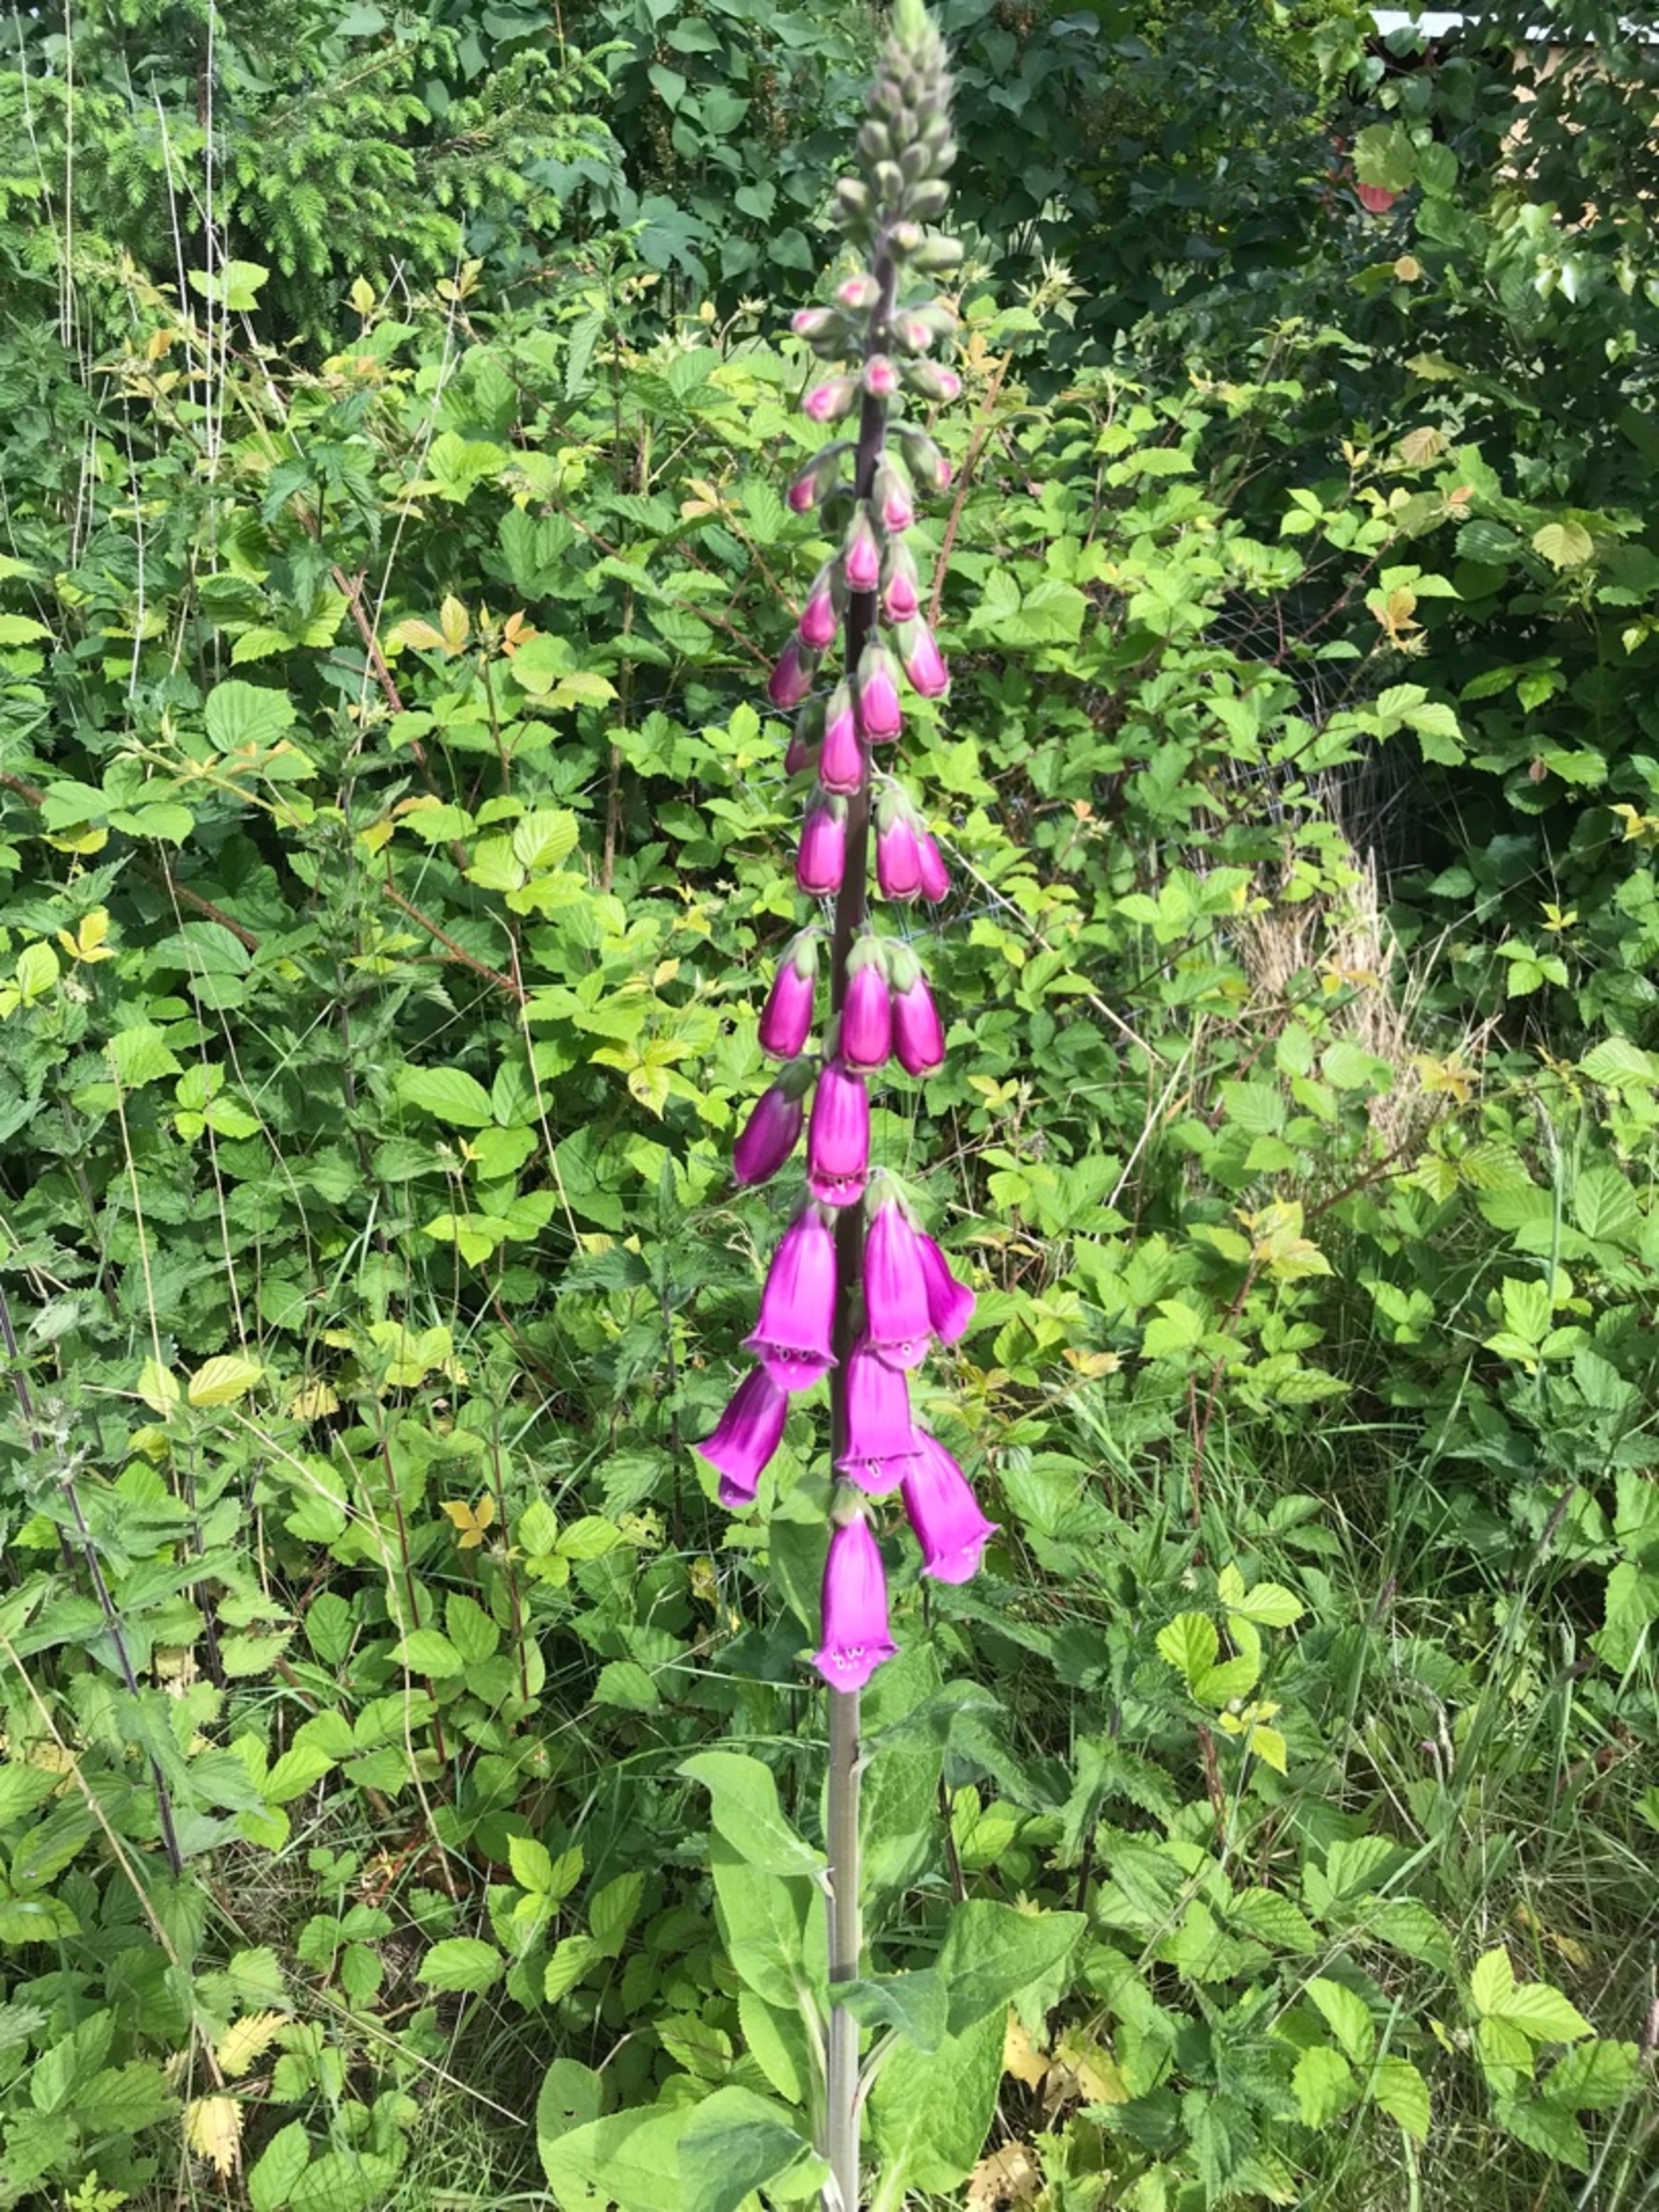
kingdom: Plantae
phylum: Tracheophyta
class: Magnoliopsida
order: Lamiales
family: Plantaginaceae
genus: Digitalis
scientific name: Digitalis purpurea
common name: Almindelig fingerbøl
